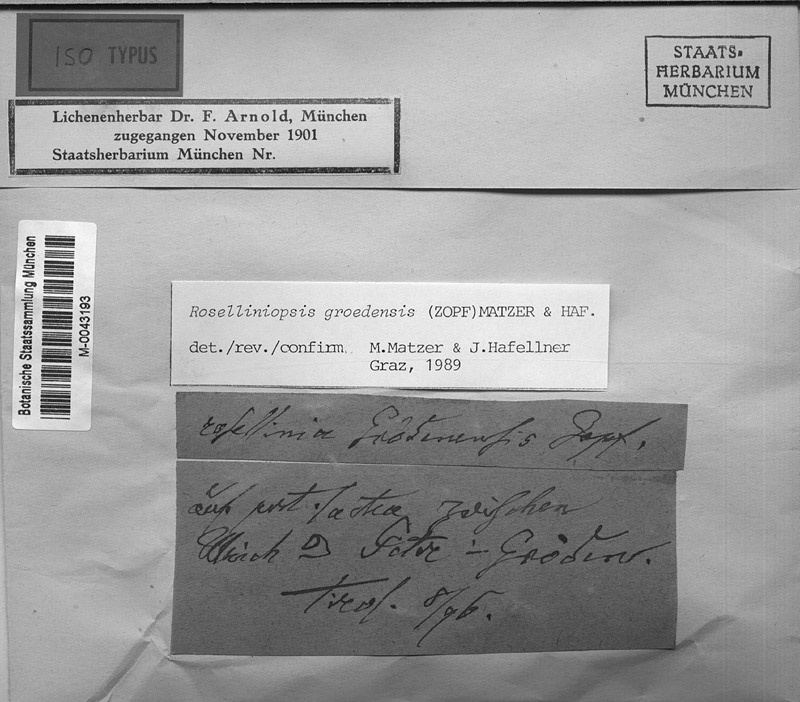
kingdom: Fungi
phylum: Ascomycota
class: Lecanoromycetes
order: Pertusariales
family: Varicellariaceae
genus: Varicellaria
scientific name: Varicellaria lactea
